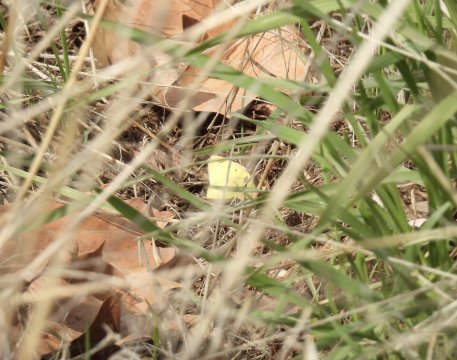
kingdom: Animalia
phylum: Arthropoda
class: Insecta
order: Lepidoptera
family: Pieridae
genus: Colias
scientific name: Colias eurytheme
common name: Orange Sulphur
